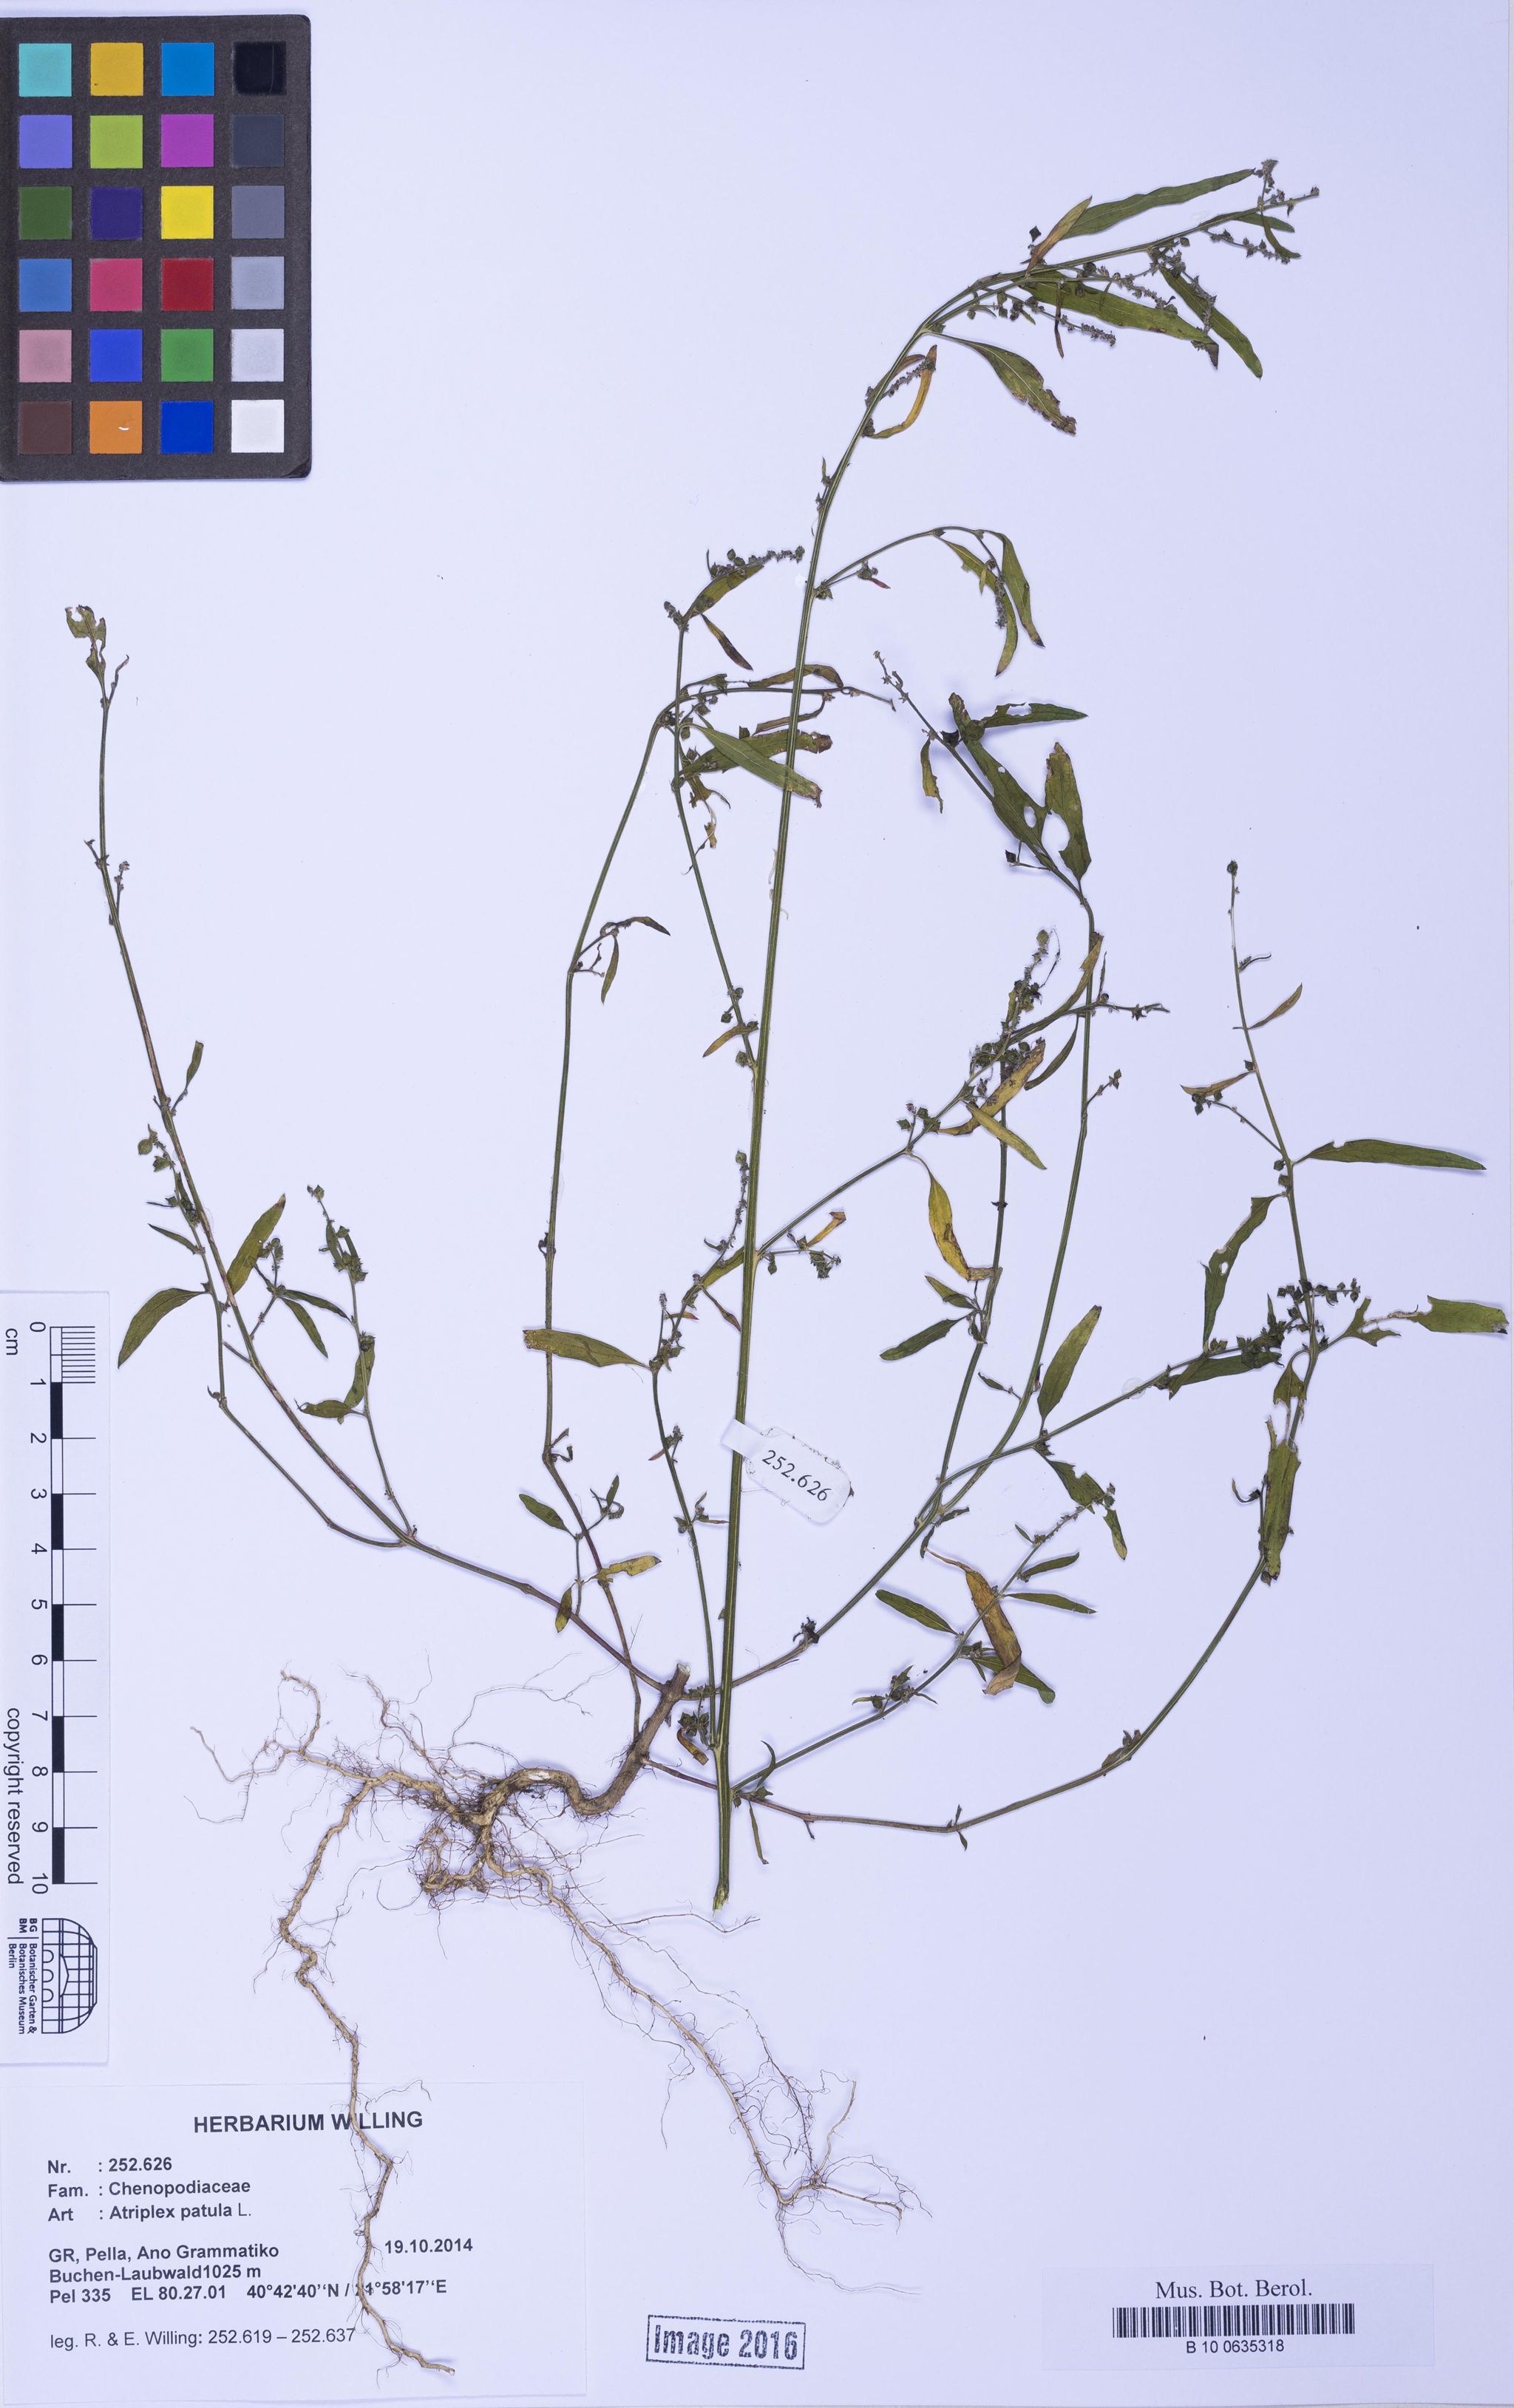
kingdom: Plantae
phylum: Tracheophyta
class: Magnoliopsida
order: Caryophyllales
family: Amaranthaceae
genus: Atriplex
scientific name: Atriplex patula
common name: Common orache
